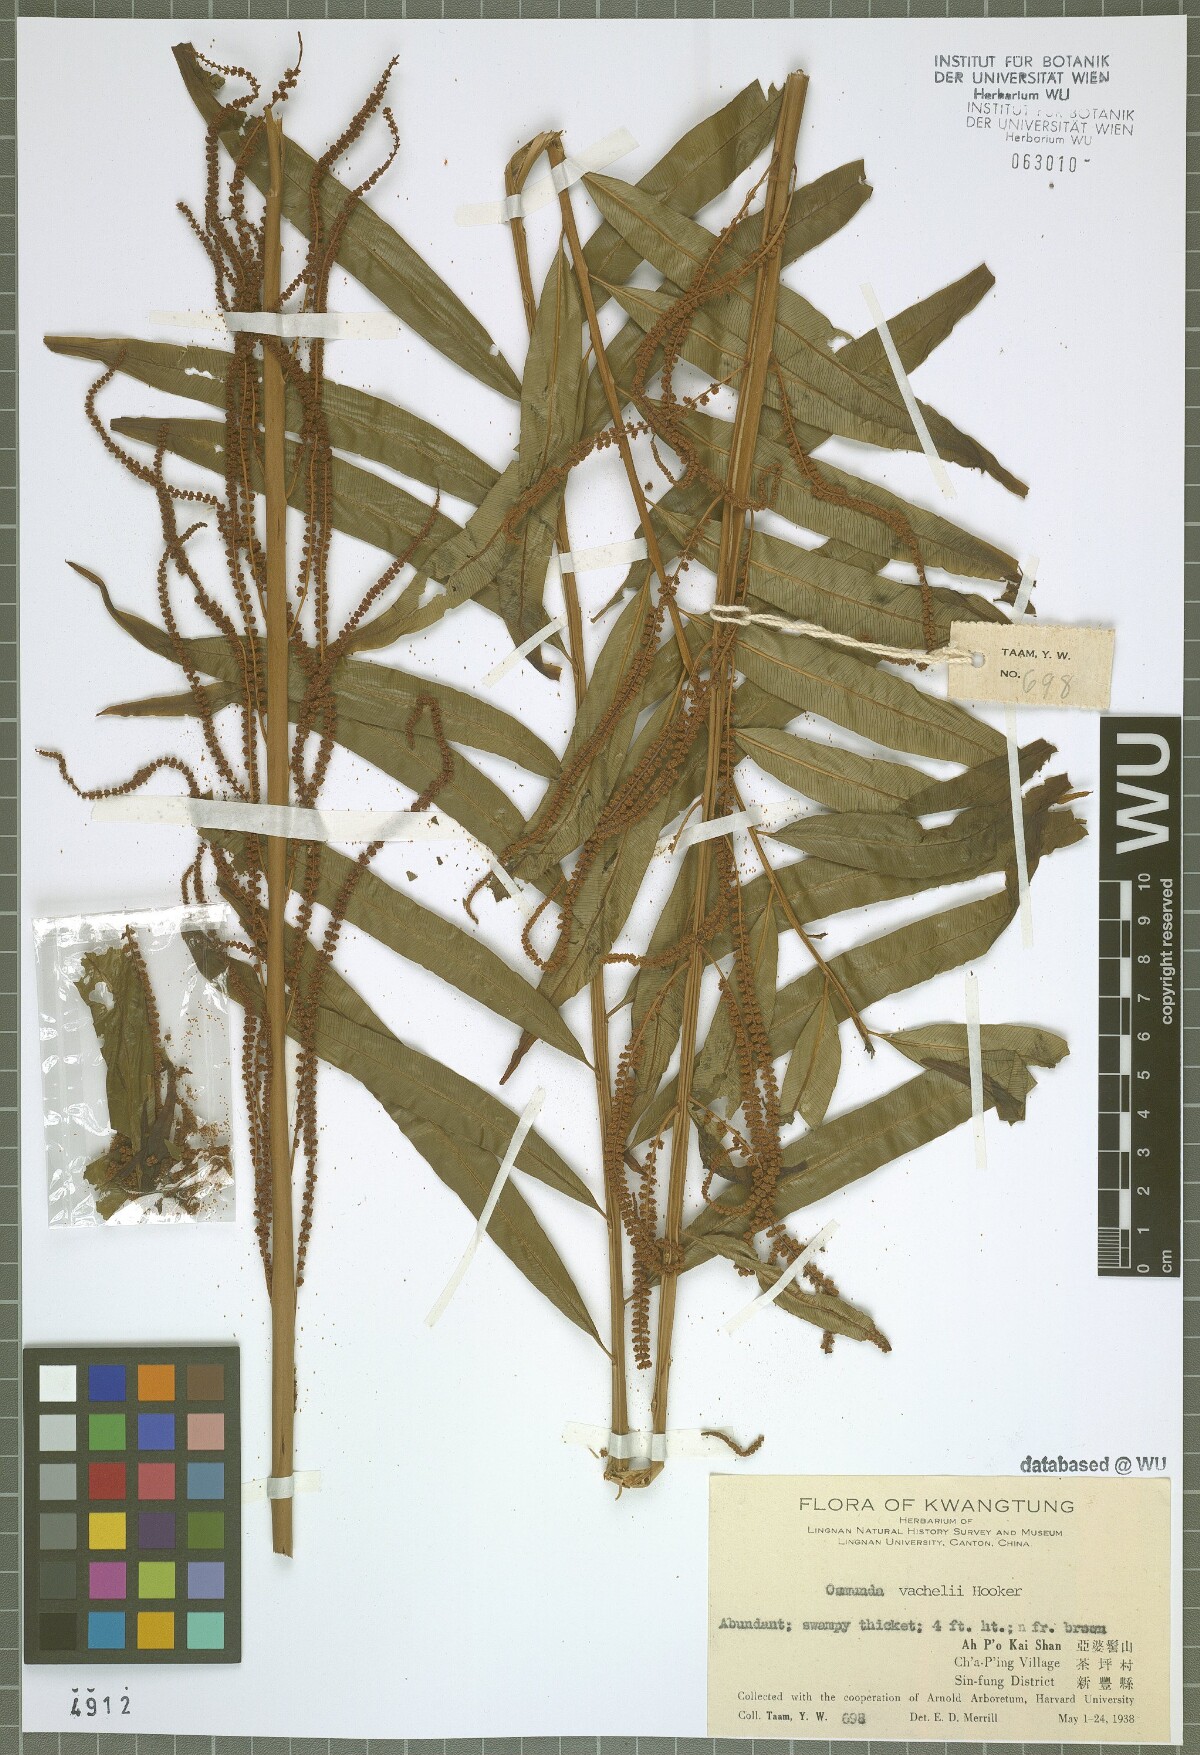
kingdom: Plantae
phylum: Tracheophyta
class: Polypodiopsida
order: Osmundales
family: Osmundaceae
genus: Plenasium
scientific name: Plenasium vachellii
